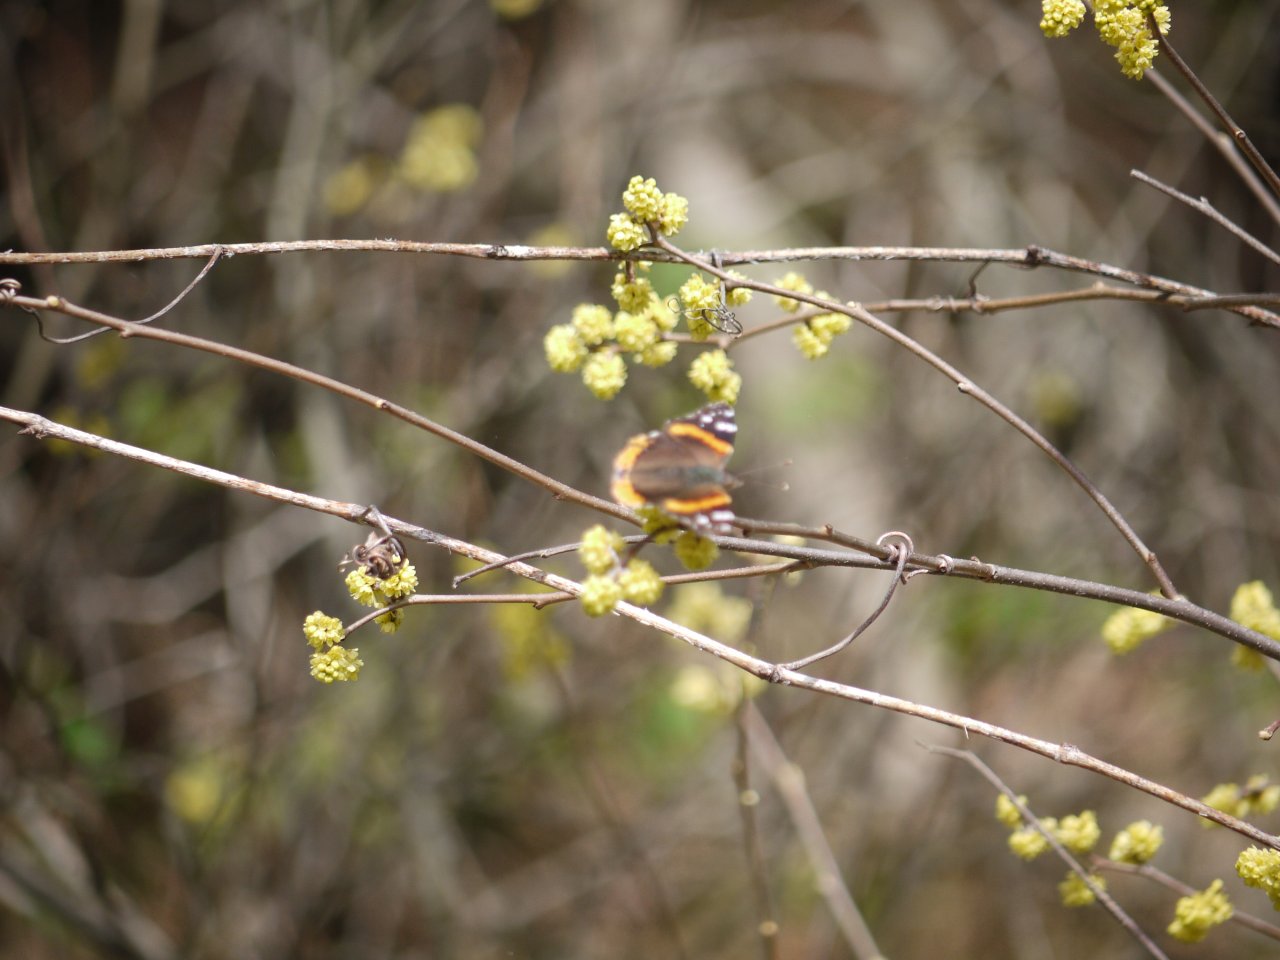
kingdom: Animalia
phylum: Arthropoda
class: Insecta
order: Lepidoptera
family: Nymphalidae
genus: Vanessa
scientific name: Vanessa atalanta
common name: Red Admiral
